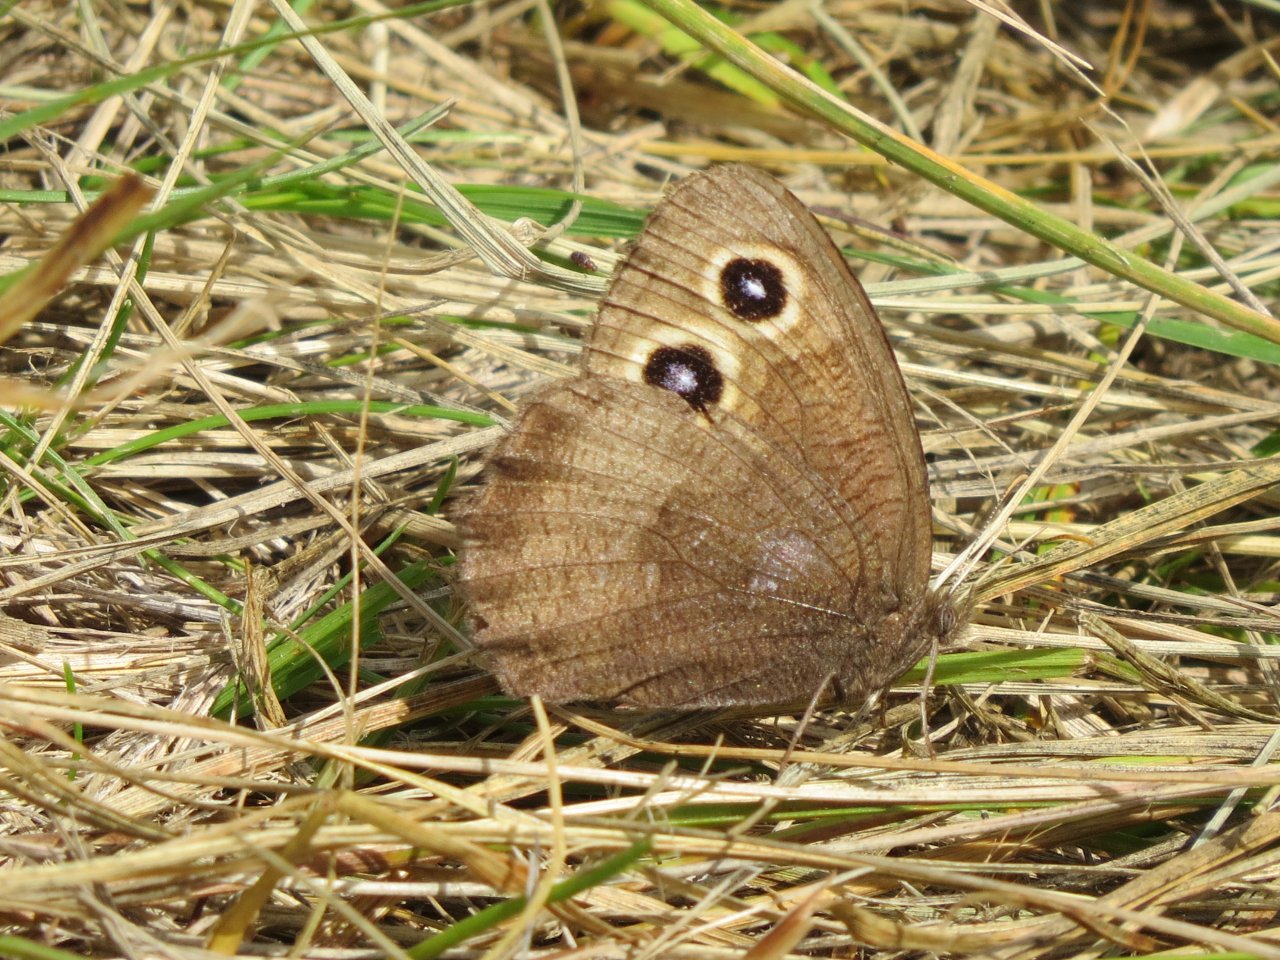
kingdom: Animalia
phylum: Arthropoda
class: Insecta
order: Lepidoptera
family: Nymphalidae
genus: Cercyonis
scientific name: Cercyonis pegala
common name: Common Wood-Nymph
